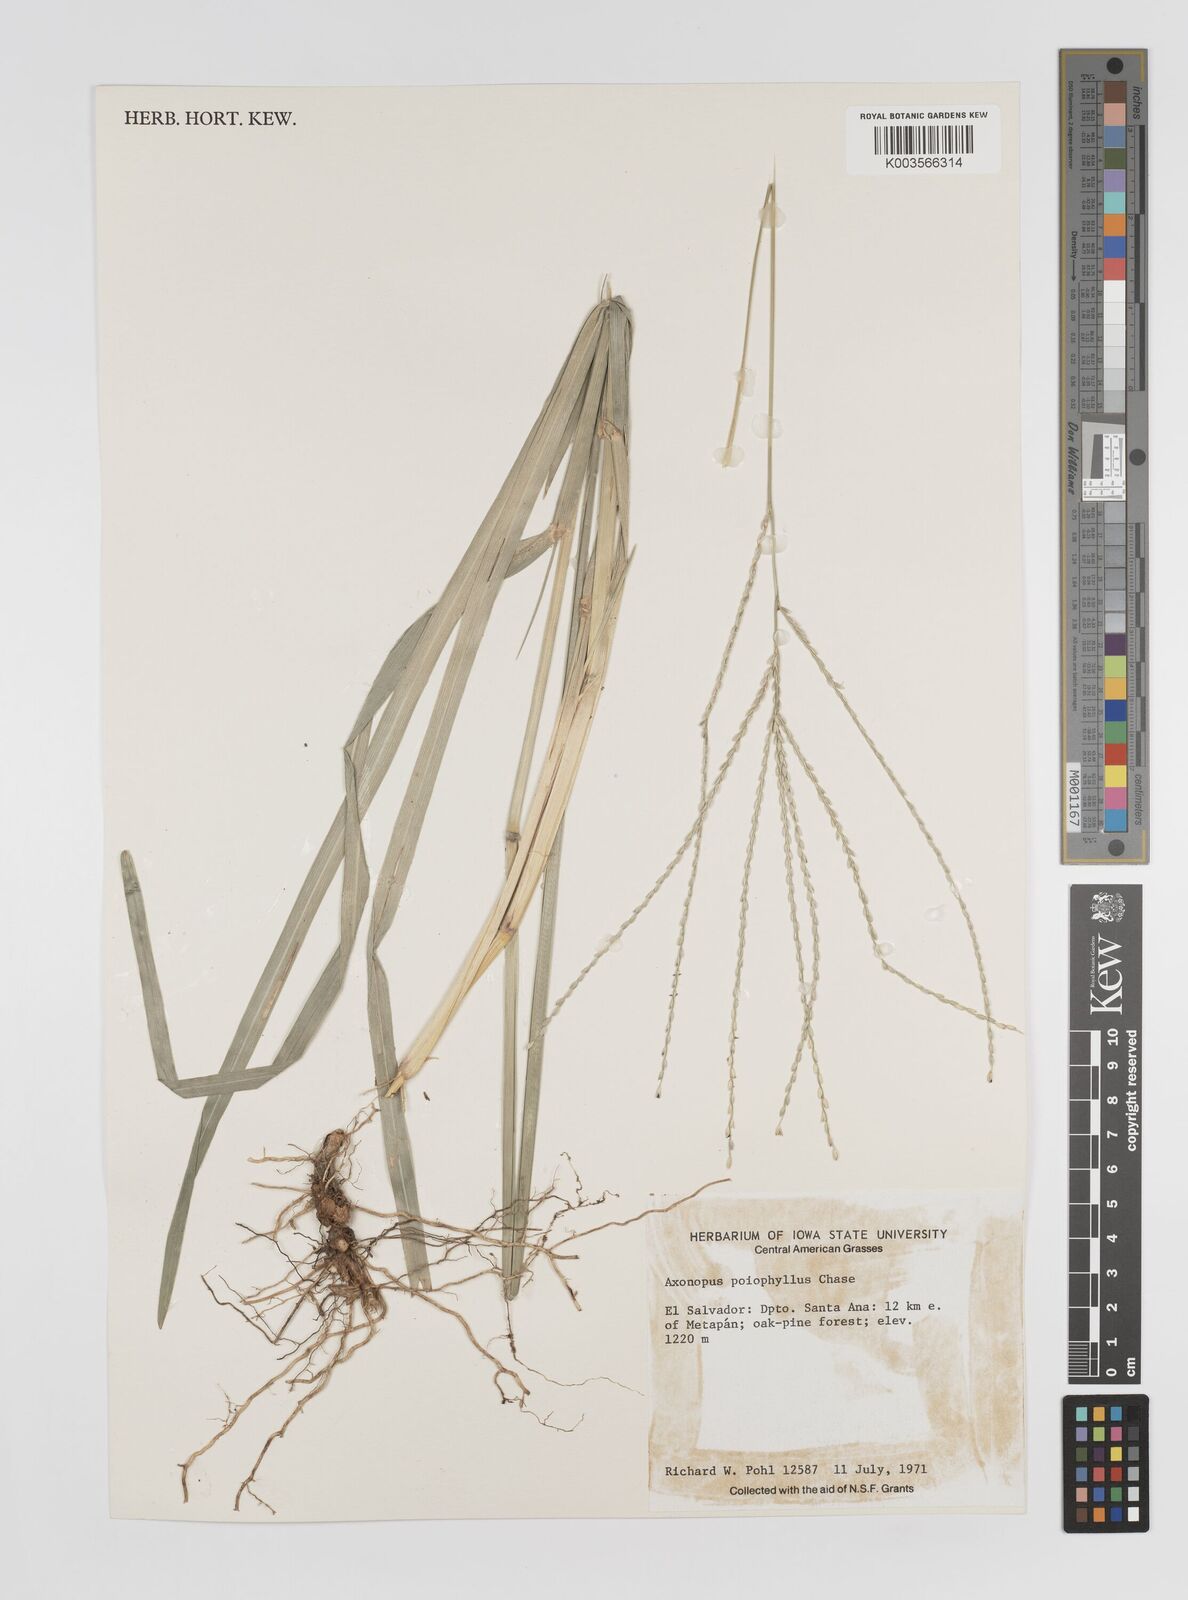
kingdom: Plantae
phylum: Tracheophyta
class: Liliopsida
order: Poales
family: Poaceae
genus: Axonopus
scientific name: Axonopus
